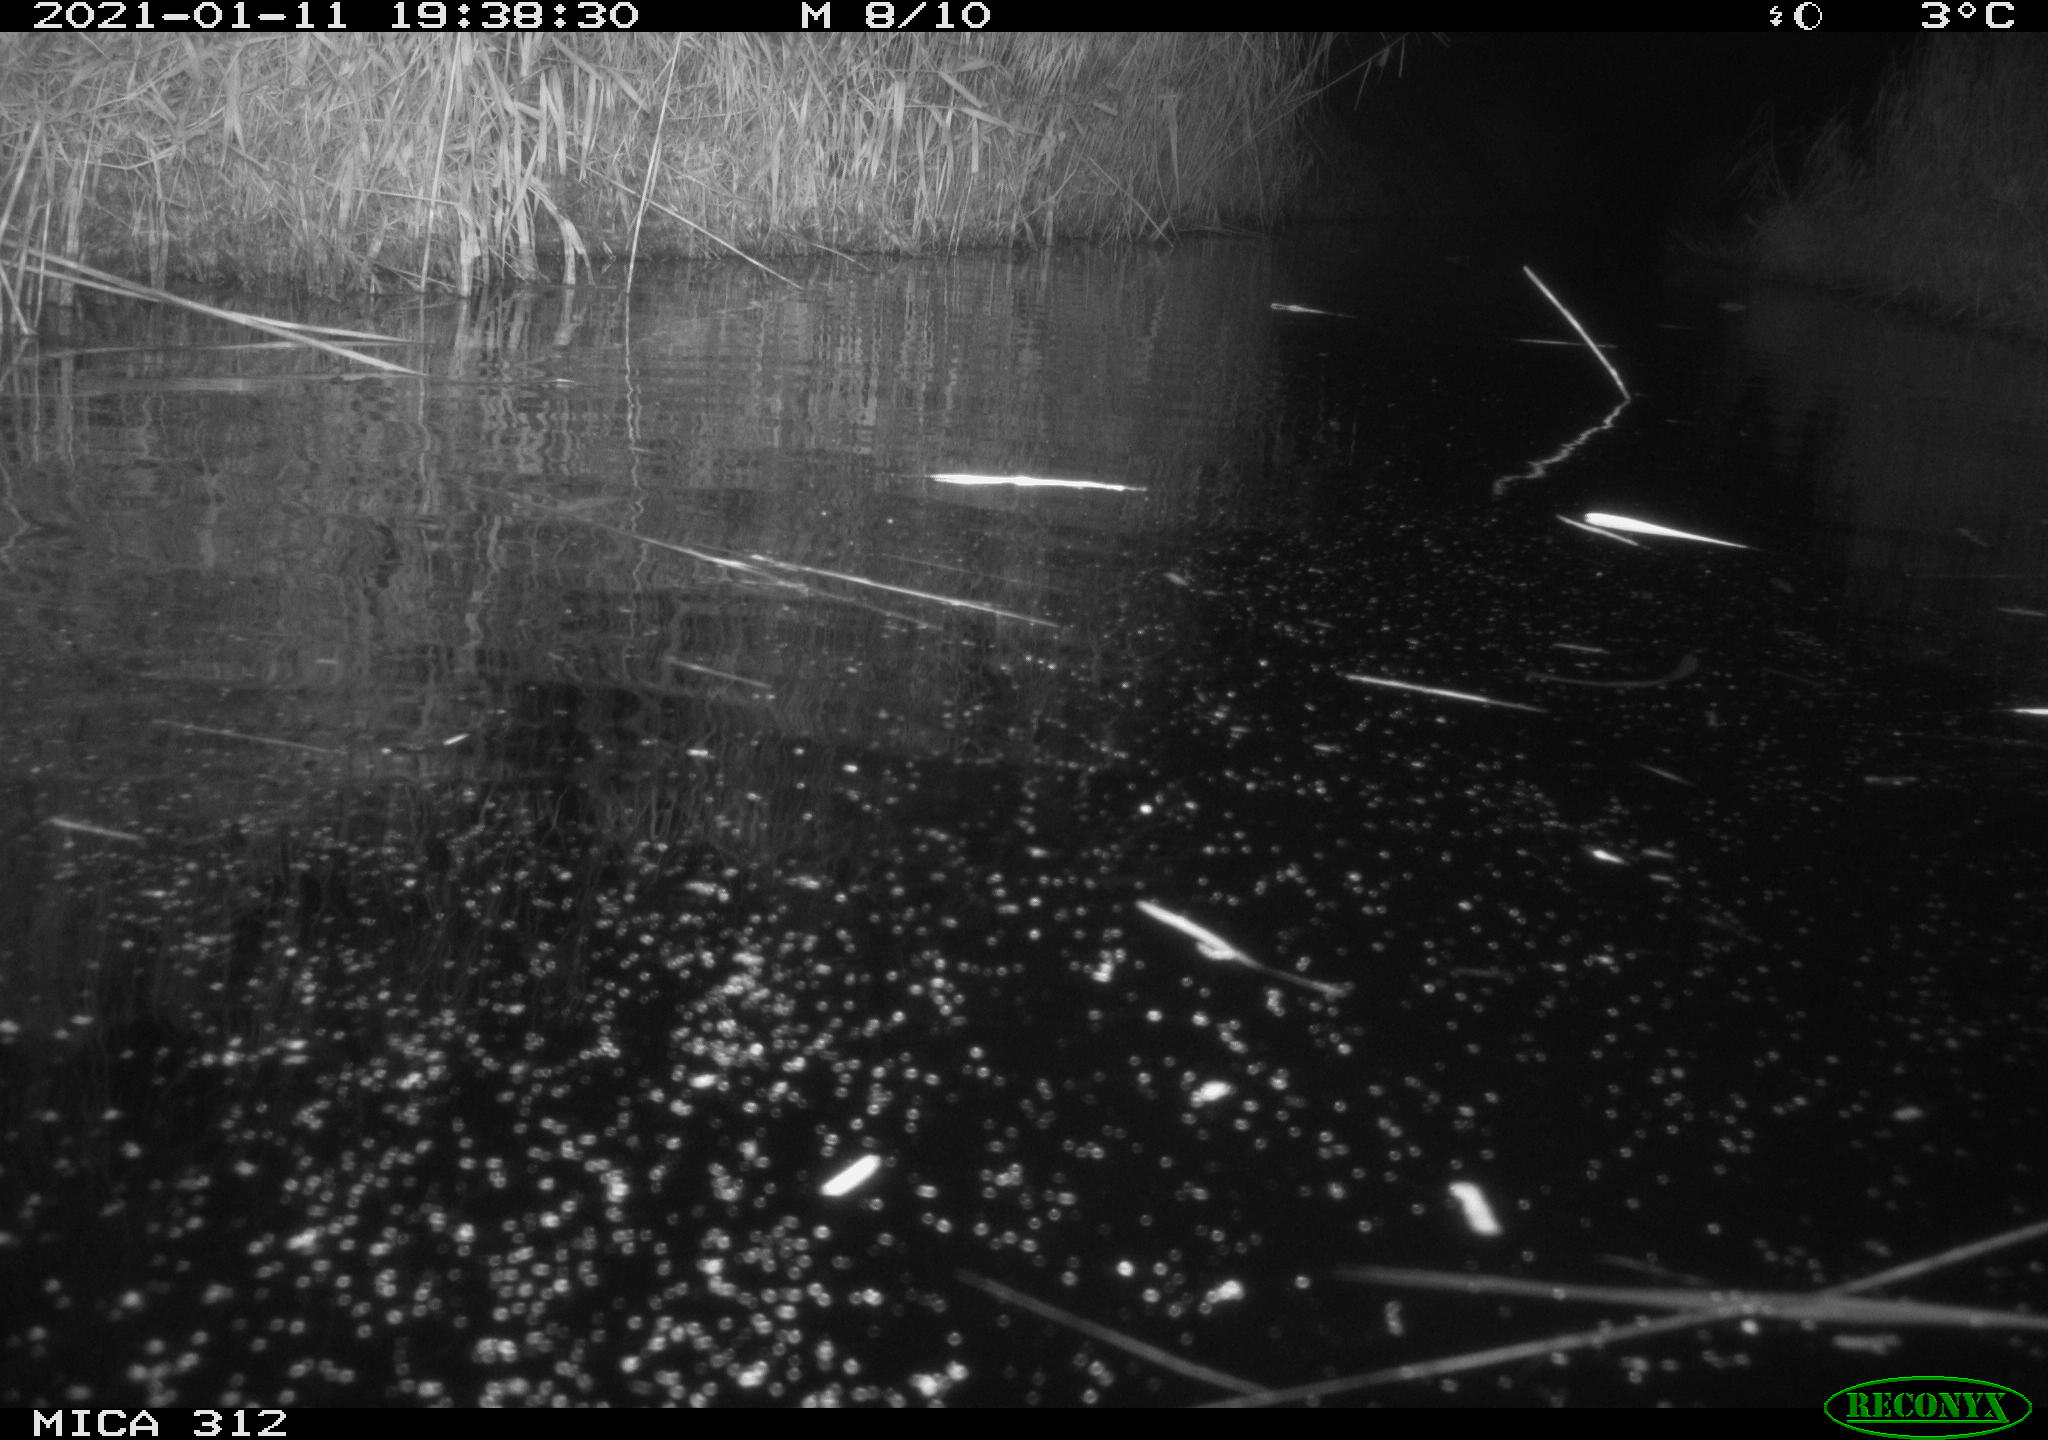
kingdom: Animalia
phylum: Chordata
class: Mammalia
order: Rodentia
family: Muridae
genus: Rattus
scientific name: Rattus norvegicus
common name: Brown rat
